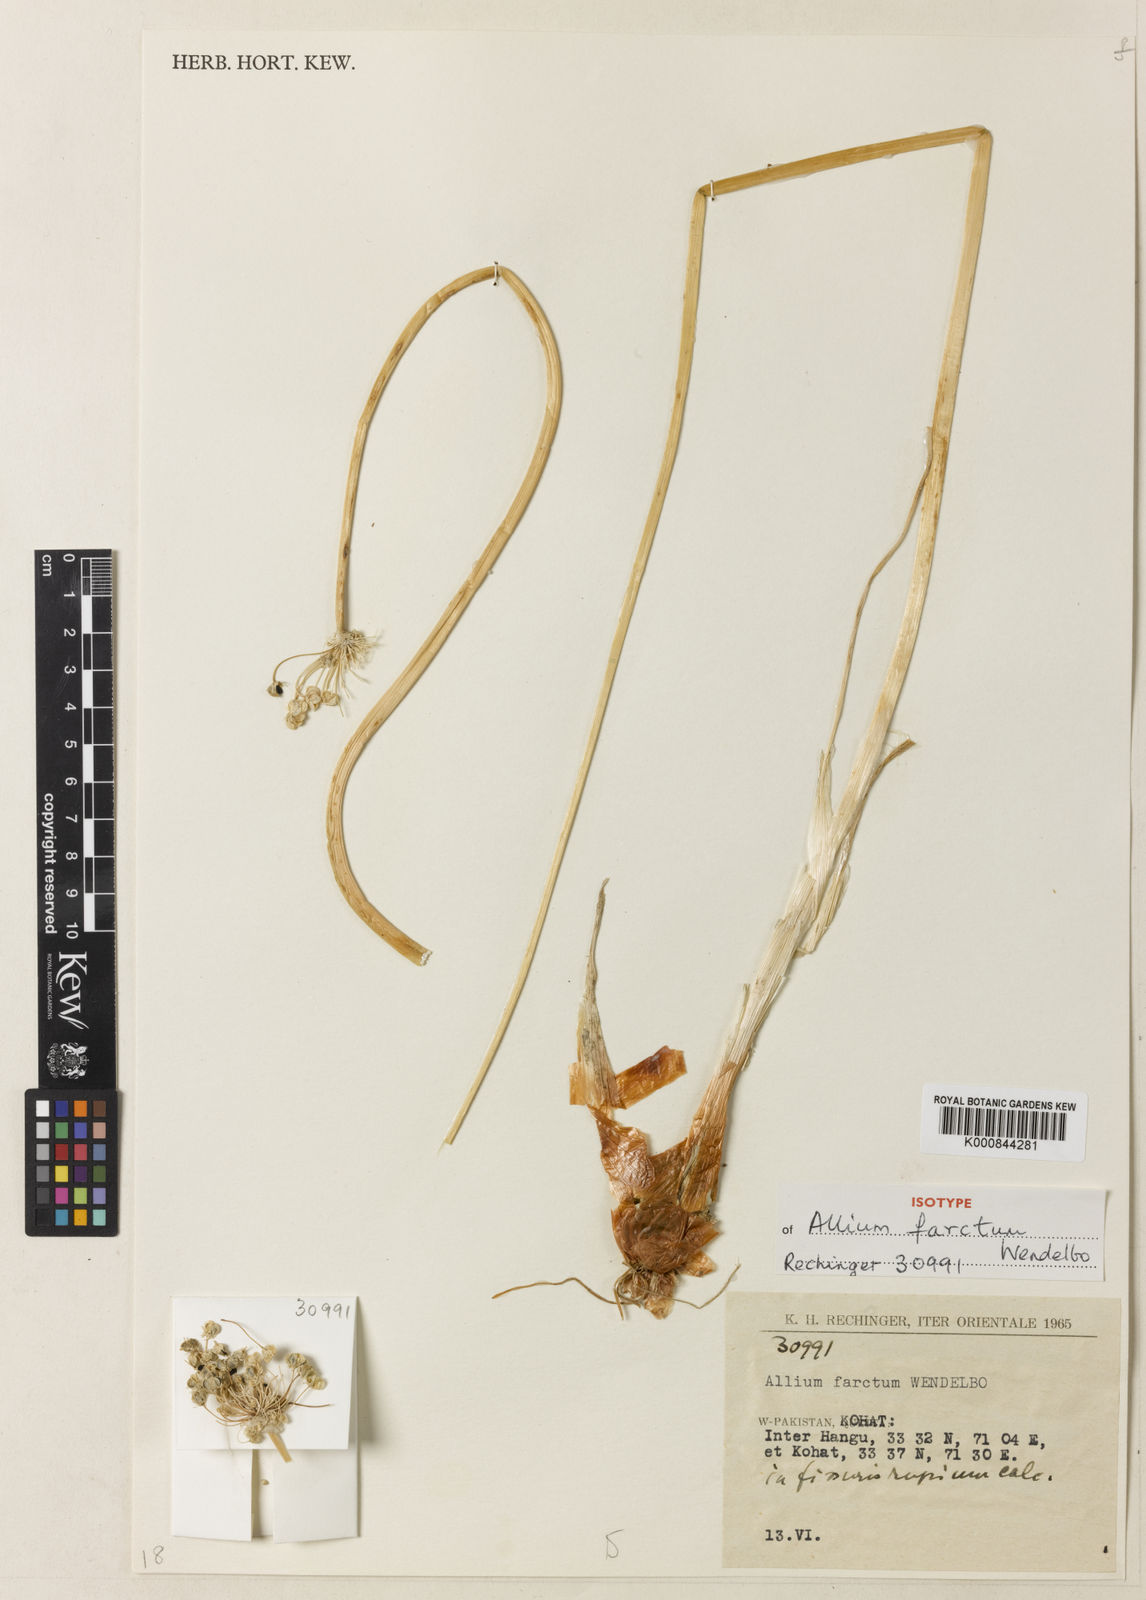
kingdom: Plantae
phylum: Tracheophyta
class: Liliopsida
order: Asparagales
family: Amaryllidaceae
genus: Allium
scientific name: Allium farctum
